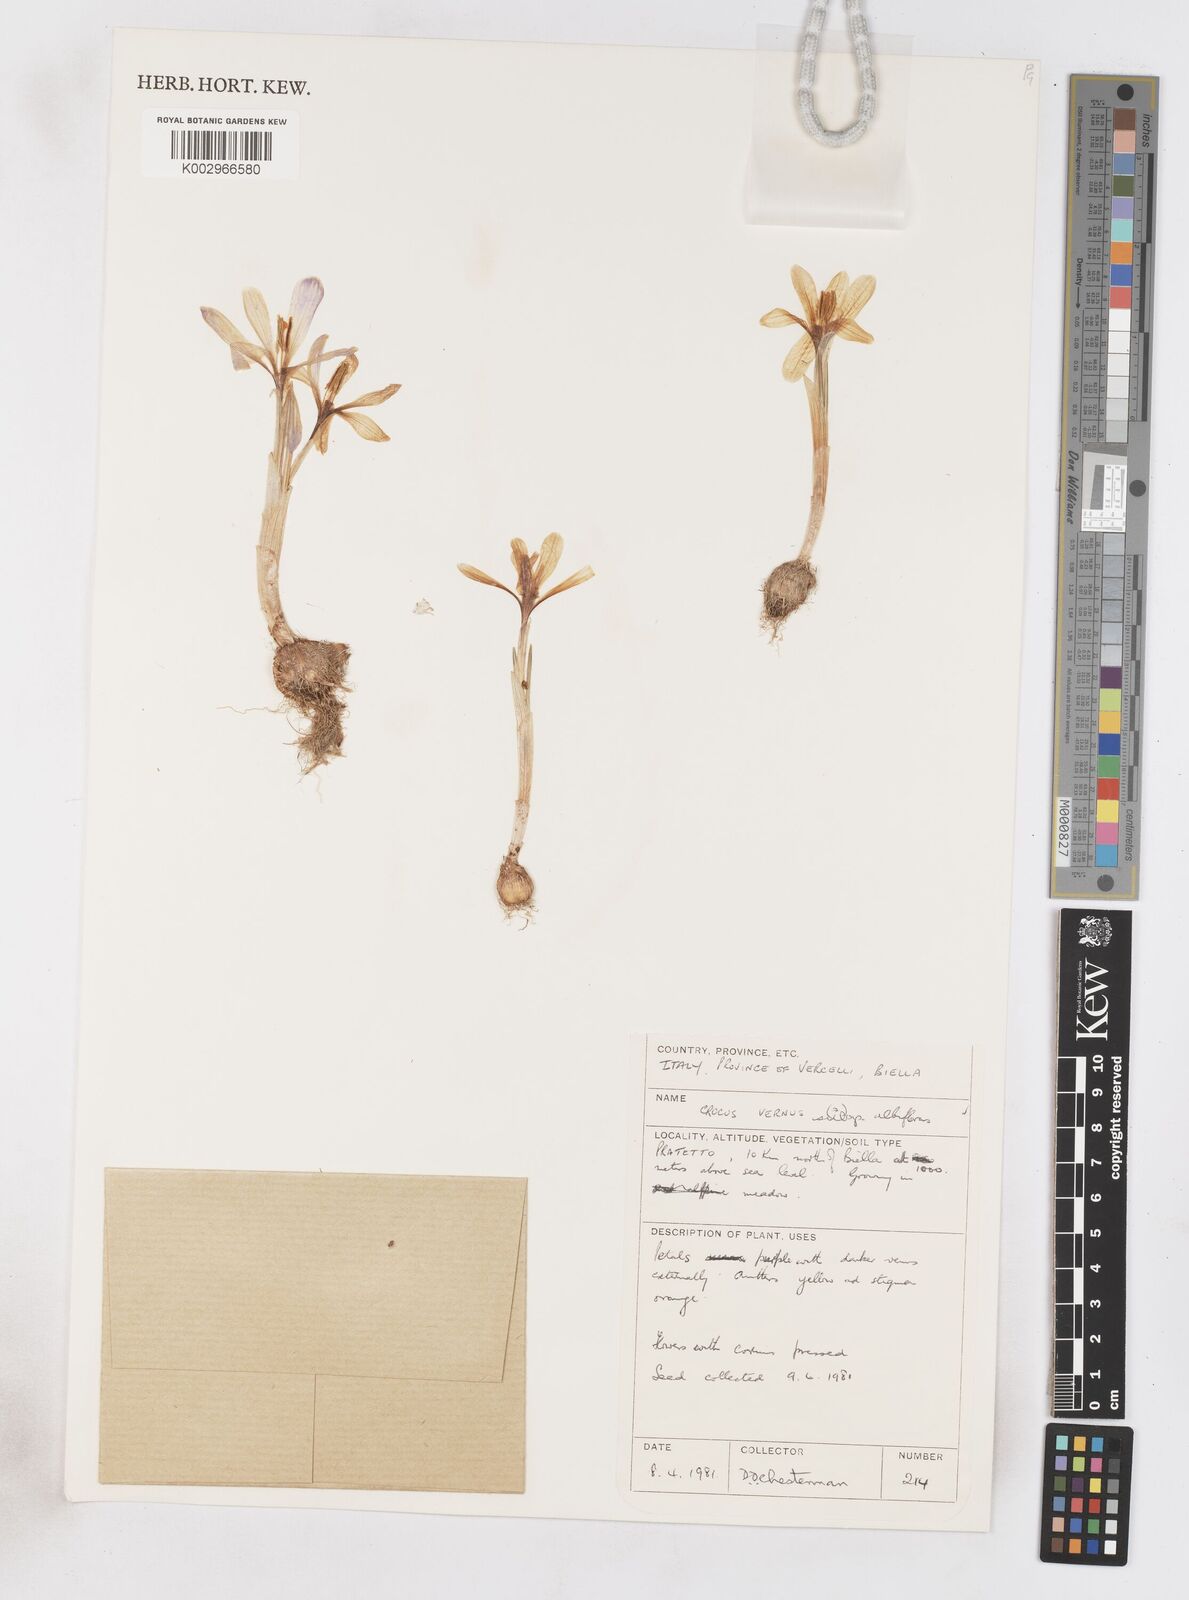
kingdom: Plantae
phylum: Tracheophyta
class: Liliopsida
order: Asparagales
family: Iridaceae
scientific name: Iridaceae
